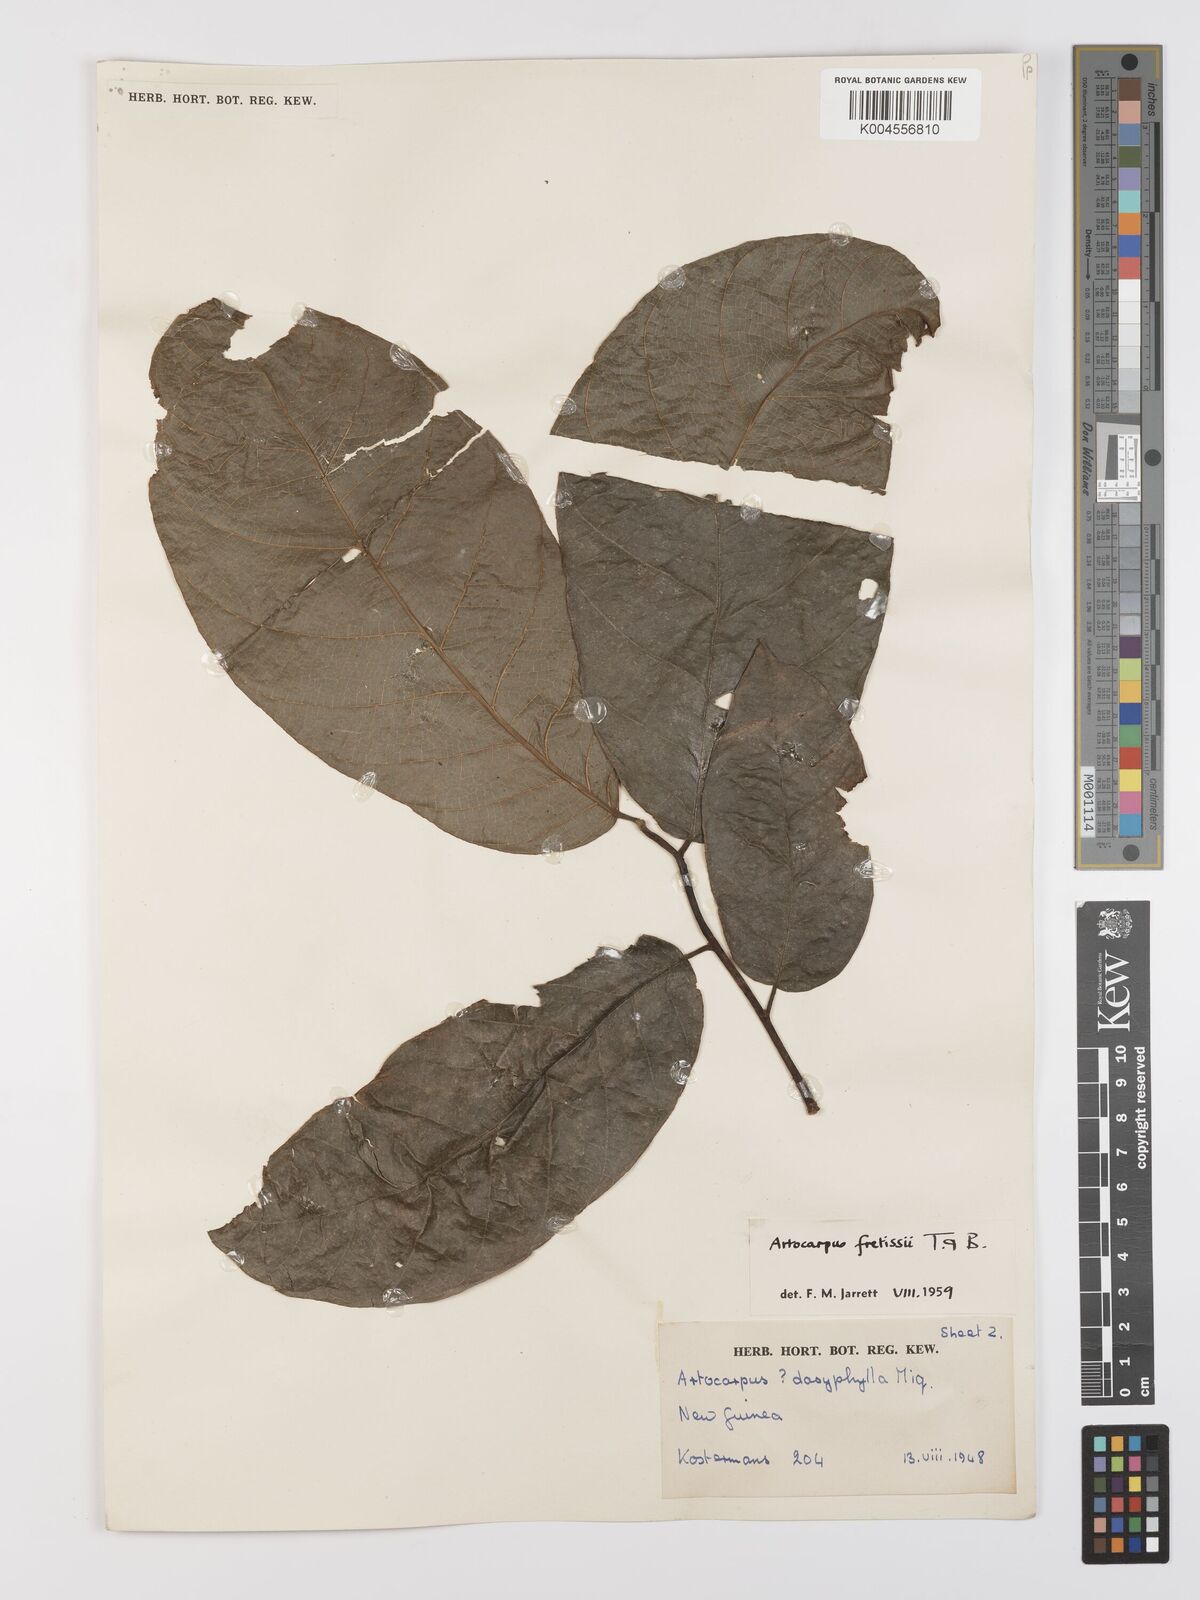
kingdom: Plantae
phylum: Tracheophyta
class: Magnoliopsida
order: Rosales
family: Moraceae
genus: Artocarpus
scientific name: Artocarpus lacucha
